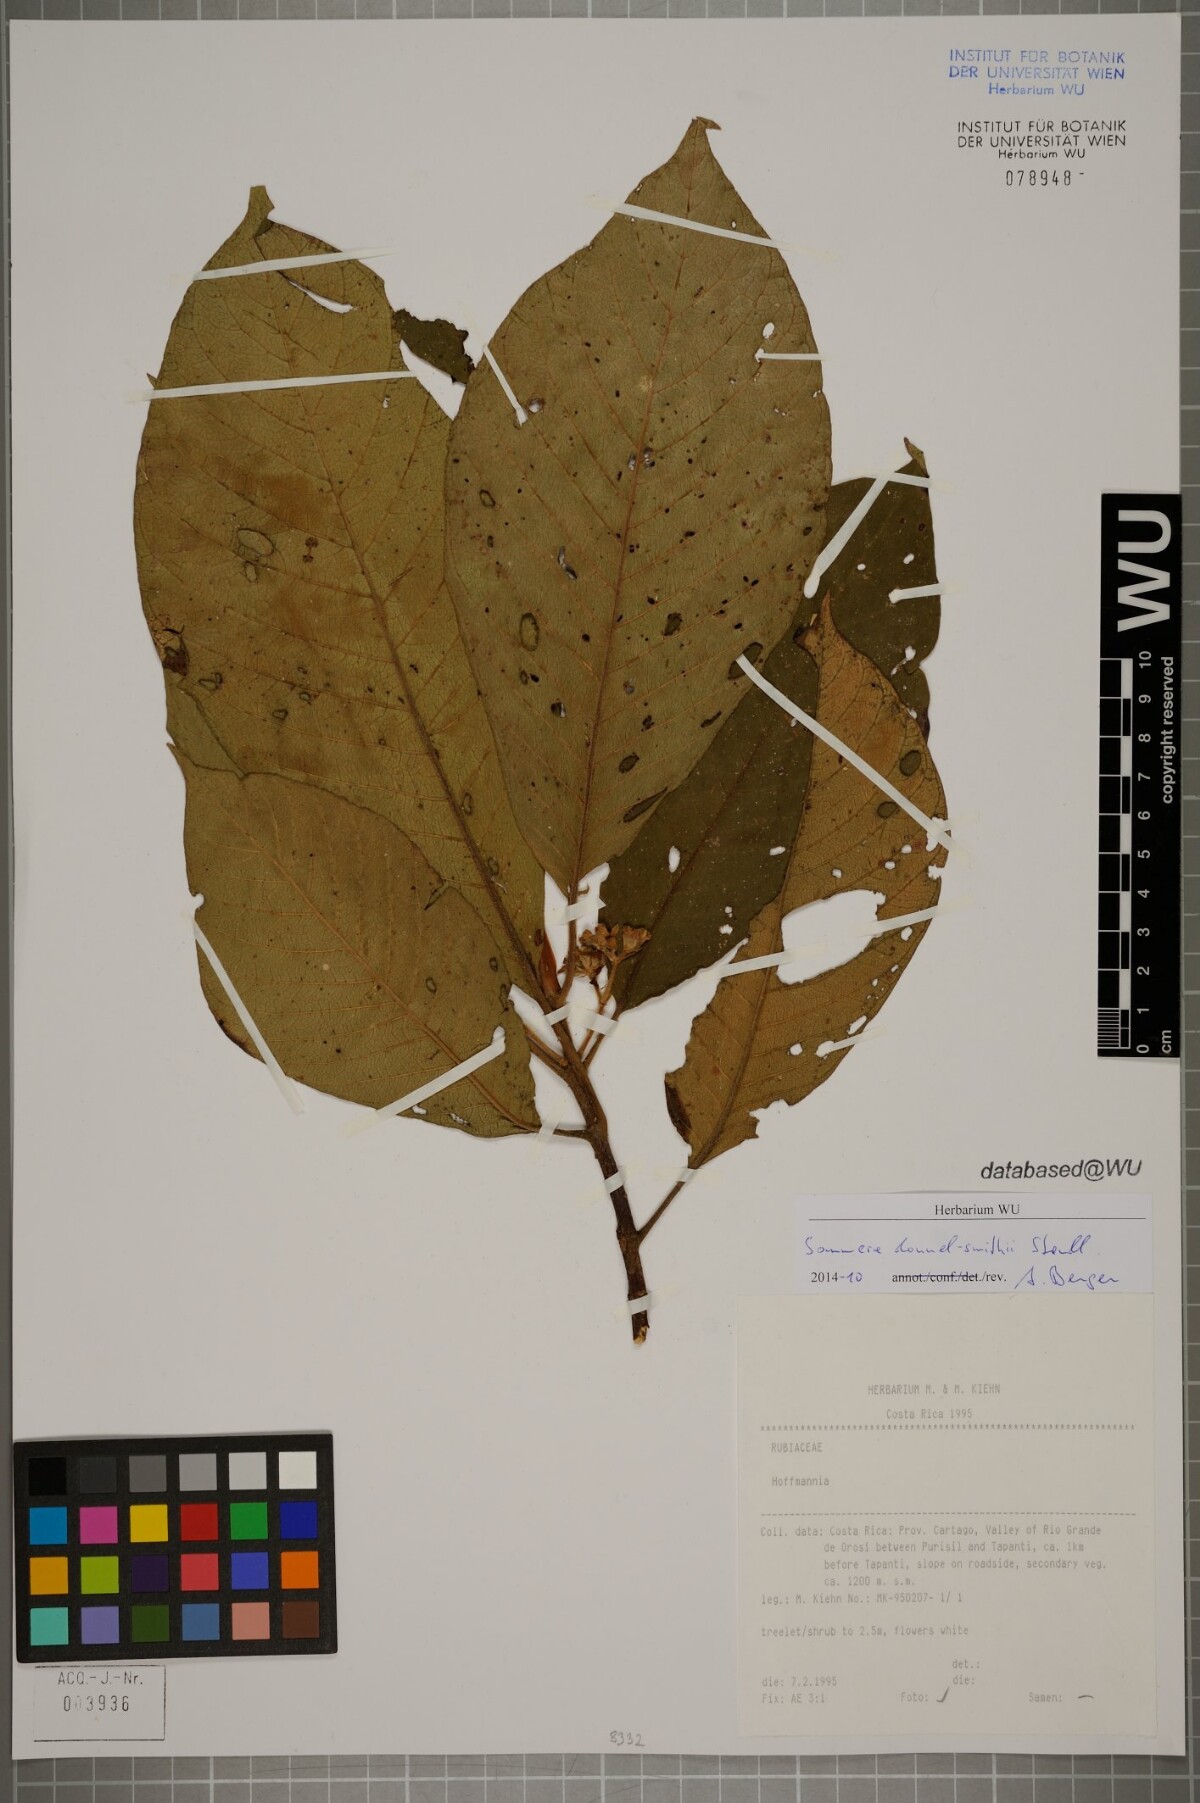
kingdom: Plantae
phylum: Tracheophyta
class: Magnoliopsida
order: Gentianales
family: Rubiaceae
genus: Sommera
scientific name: Sommera donnell-smithii
